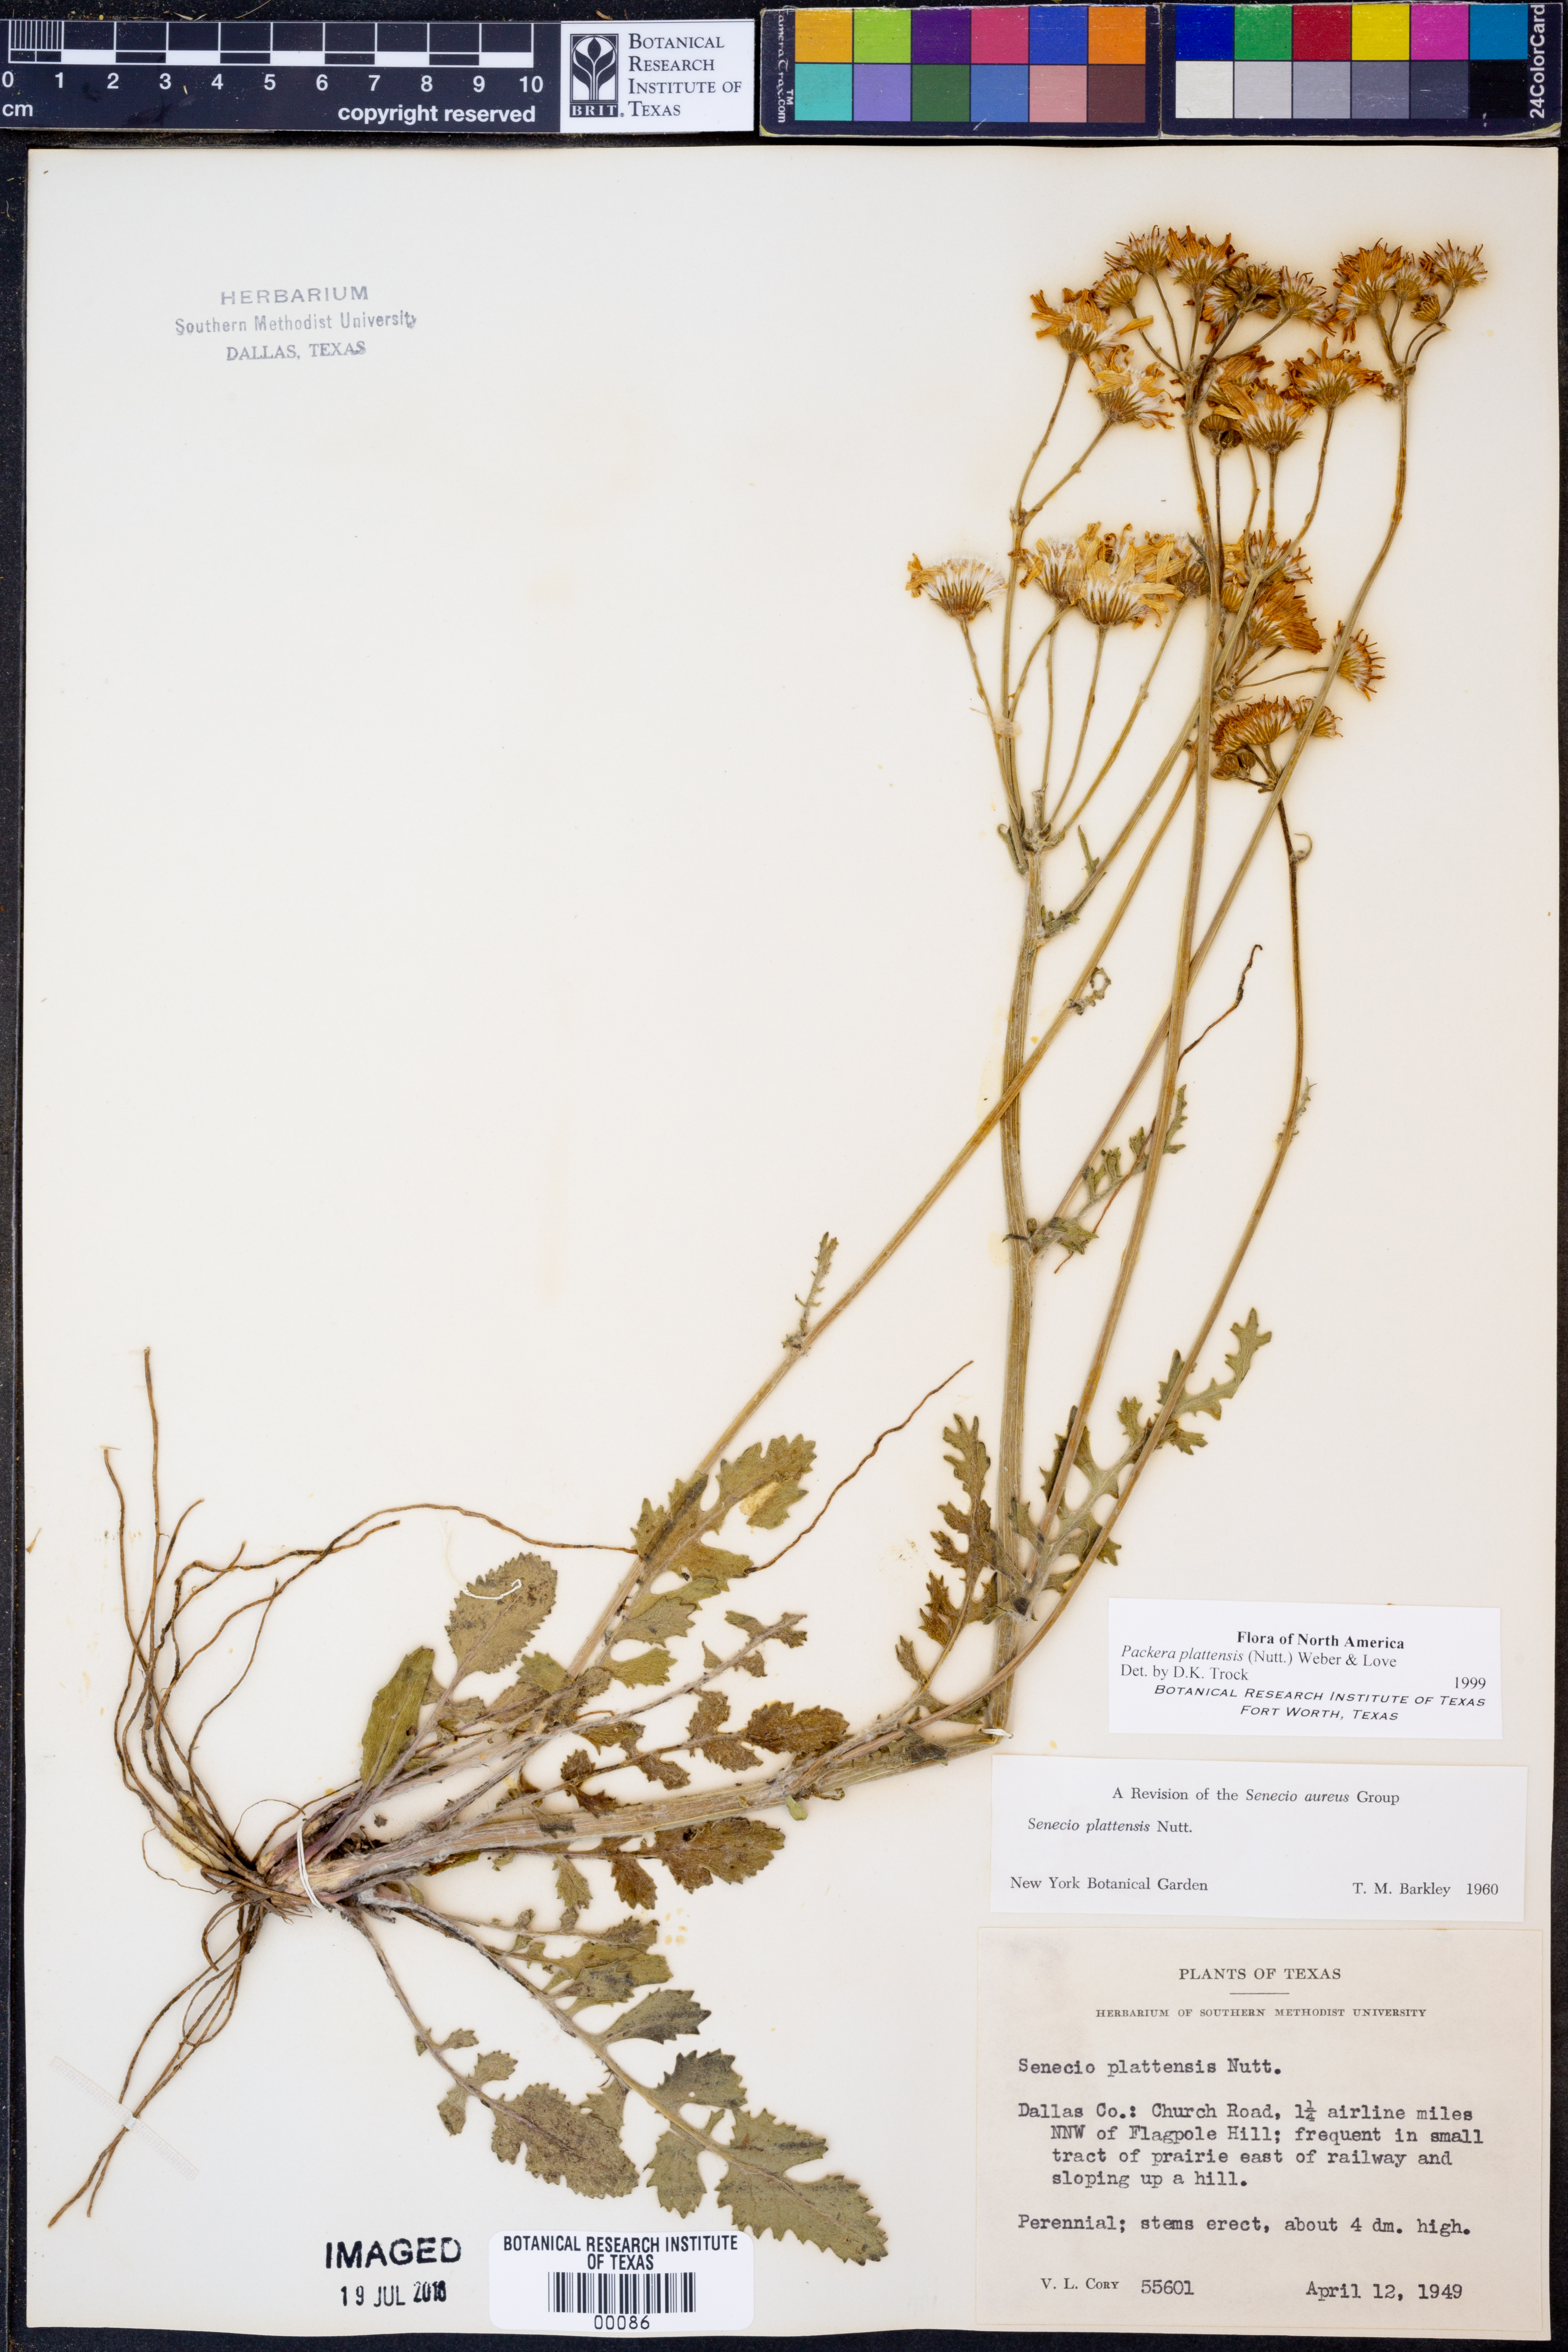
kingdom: Plantae
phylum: Tracheophyta
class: Magnoliopsida
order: Asterales
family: Asteraceae
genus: Packera
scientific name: Packera plattensis
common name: Prairie groundsel
